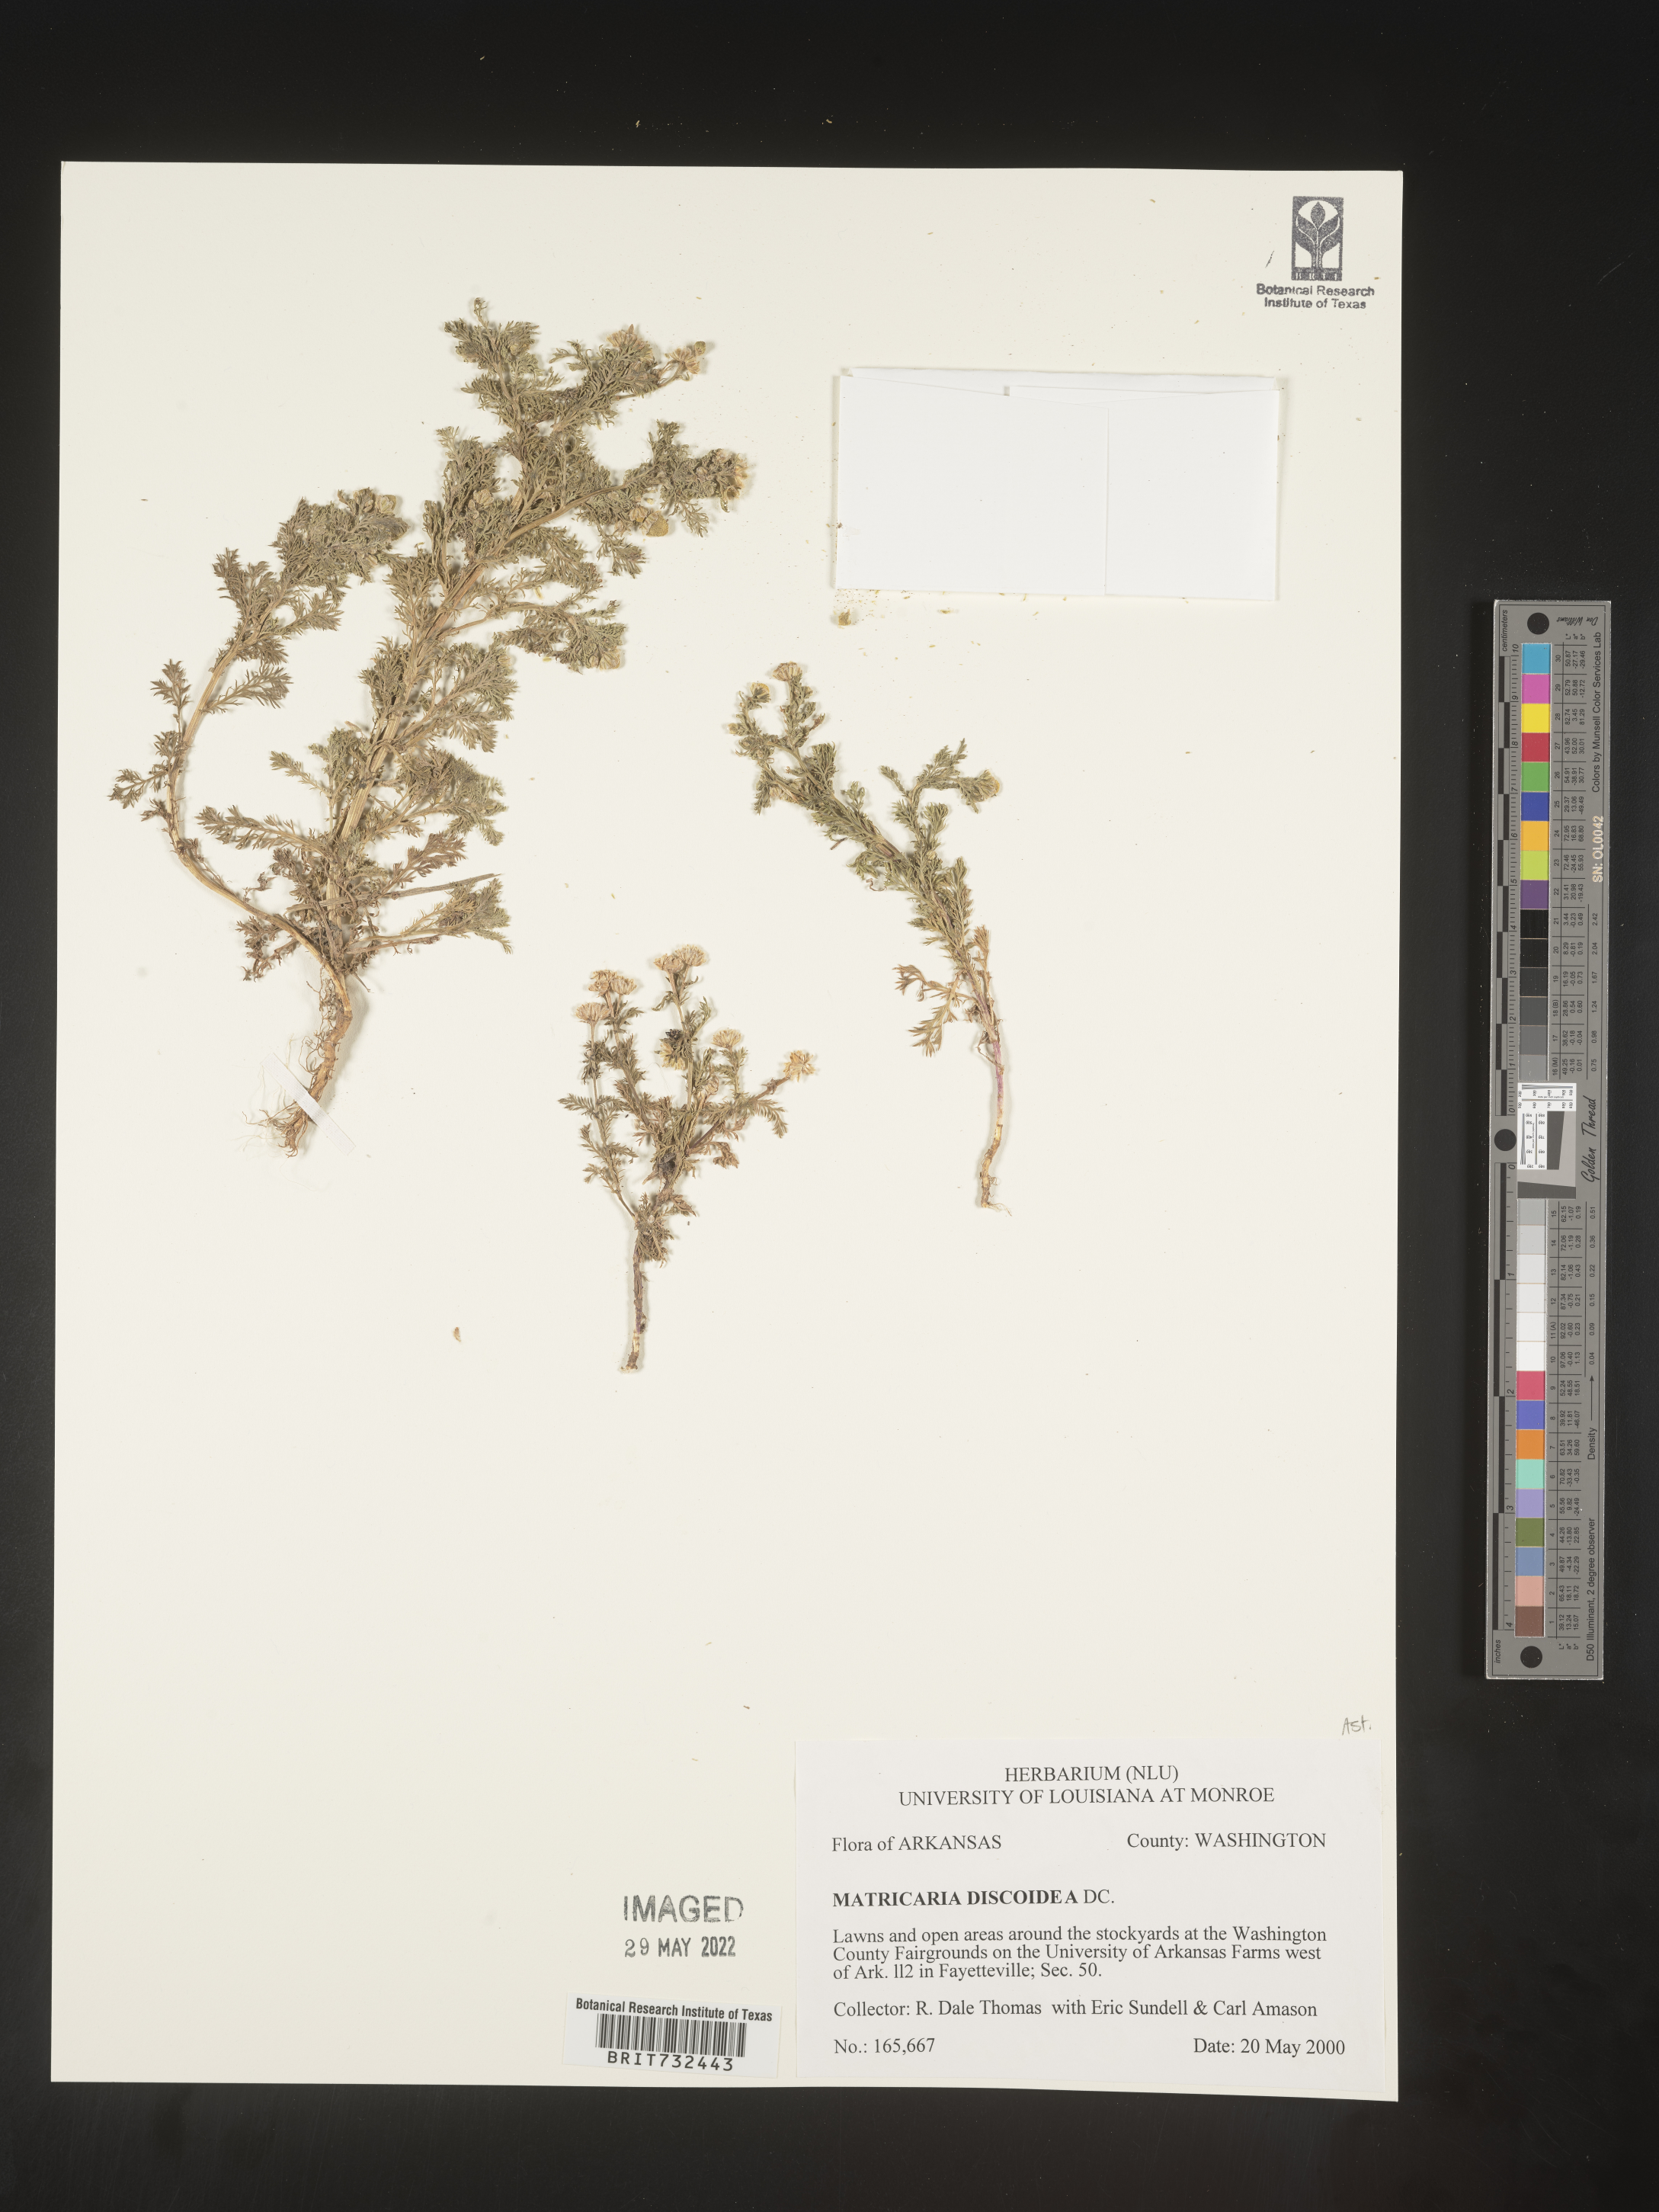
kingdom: Plantae
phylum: Tracheophyta
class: Magnoliopsida
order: Asterales
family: Asteraceae
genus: Matricaria
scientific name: Matricaria discoidea
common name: Disc mayweed
